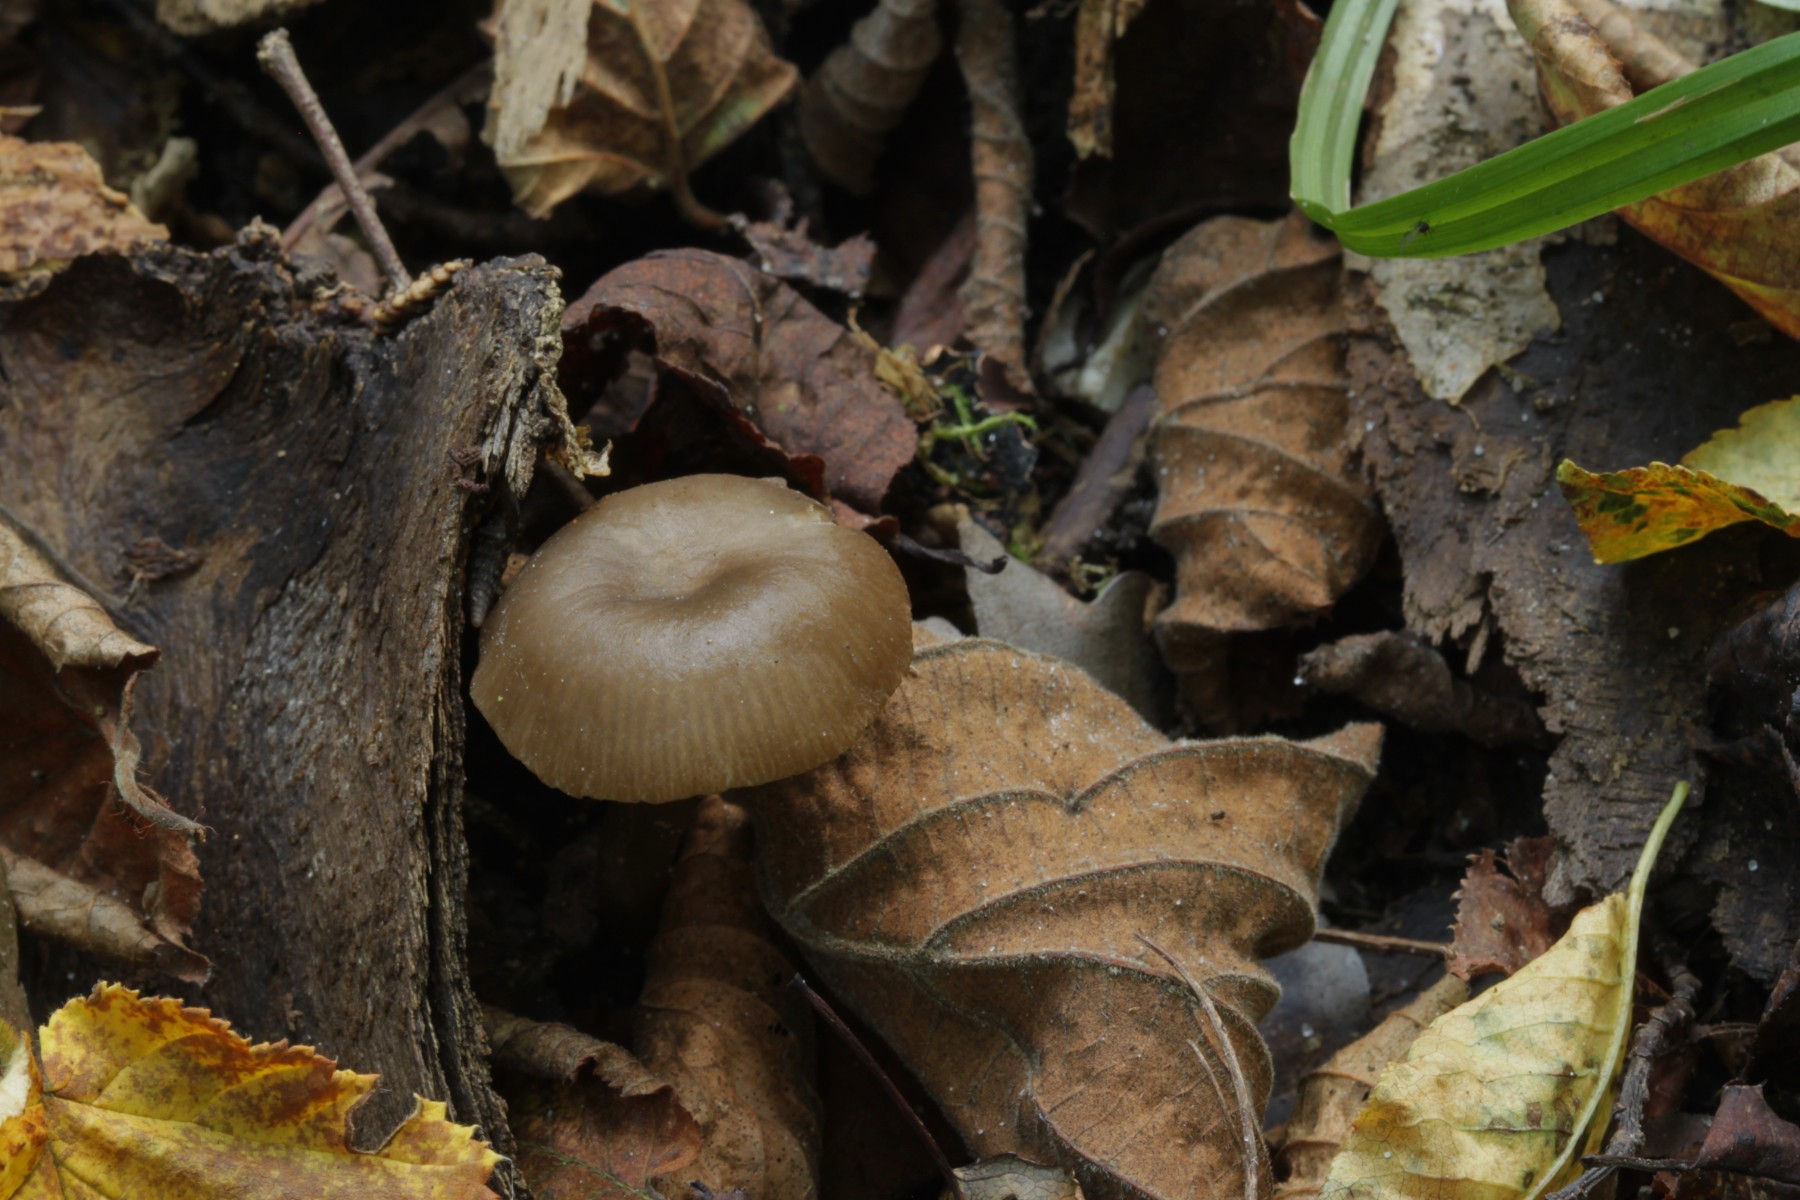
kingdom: Fungi
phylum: Basidiomycota
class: Agaricomycetes
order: Agaricales
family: Entolomataceae
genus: Entoloma
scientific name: Entoloma
